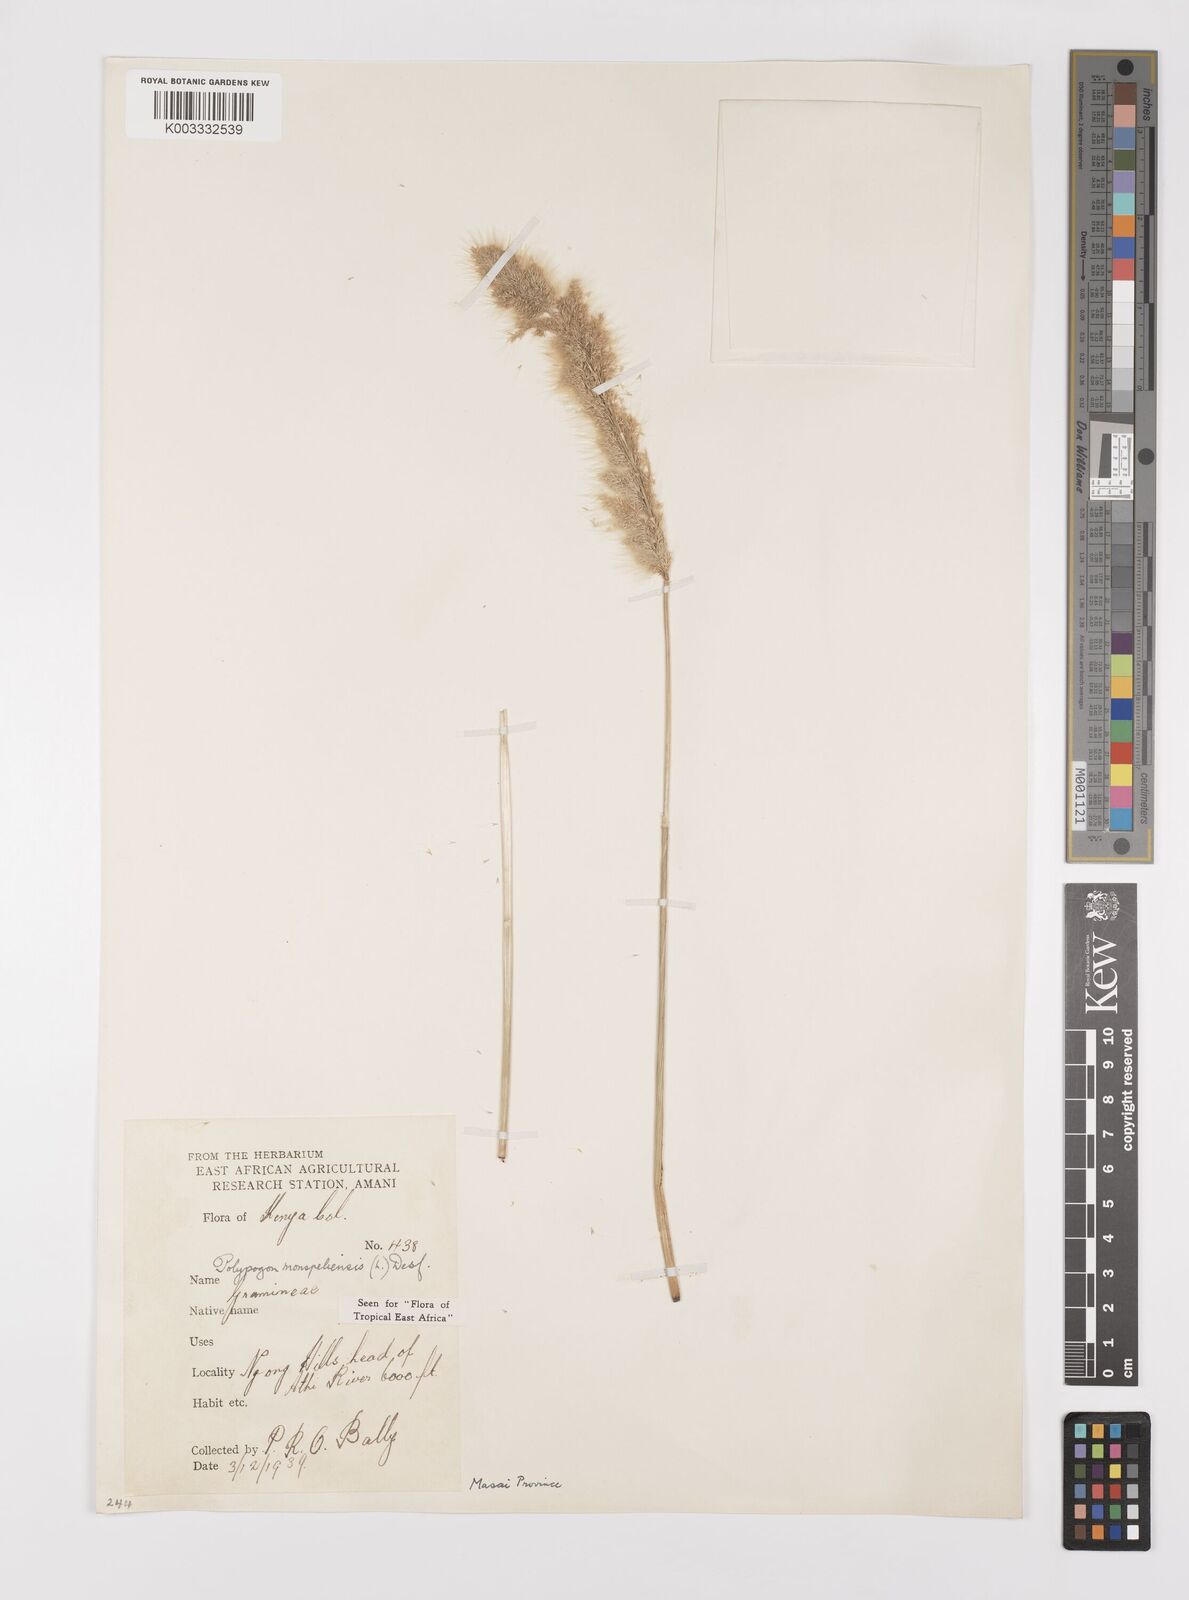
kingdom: Plantae
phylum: Tracheophyta
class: Liliopsida
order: Poales
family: Poaceae
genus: Polypogon
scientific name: Polypogon monspeliensis
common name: Annual rabbitsfoot grass
